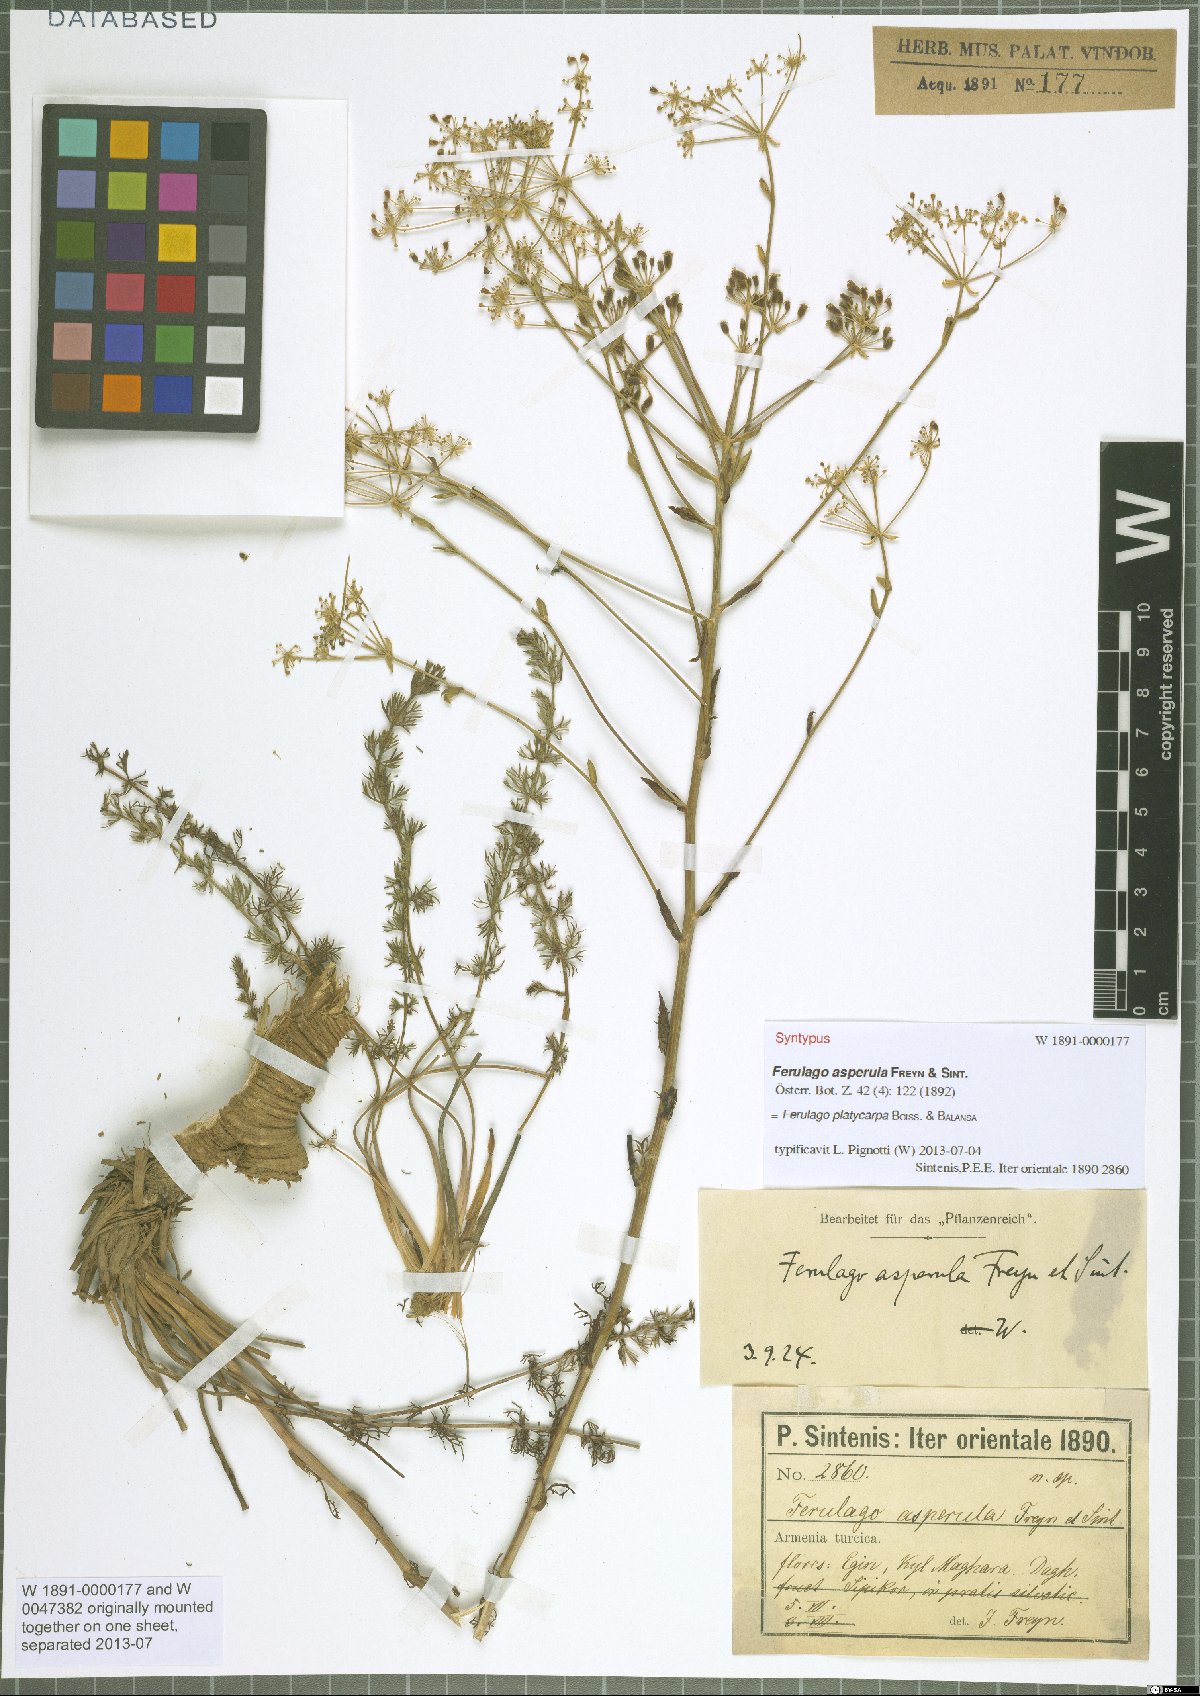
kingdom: Plantae
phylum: Tracheophyta
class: Magnoliopsida
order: Apiales
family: Apiaceae
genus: Ferulago
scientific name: Ferulago platycarpa
